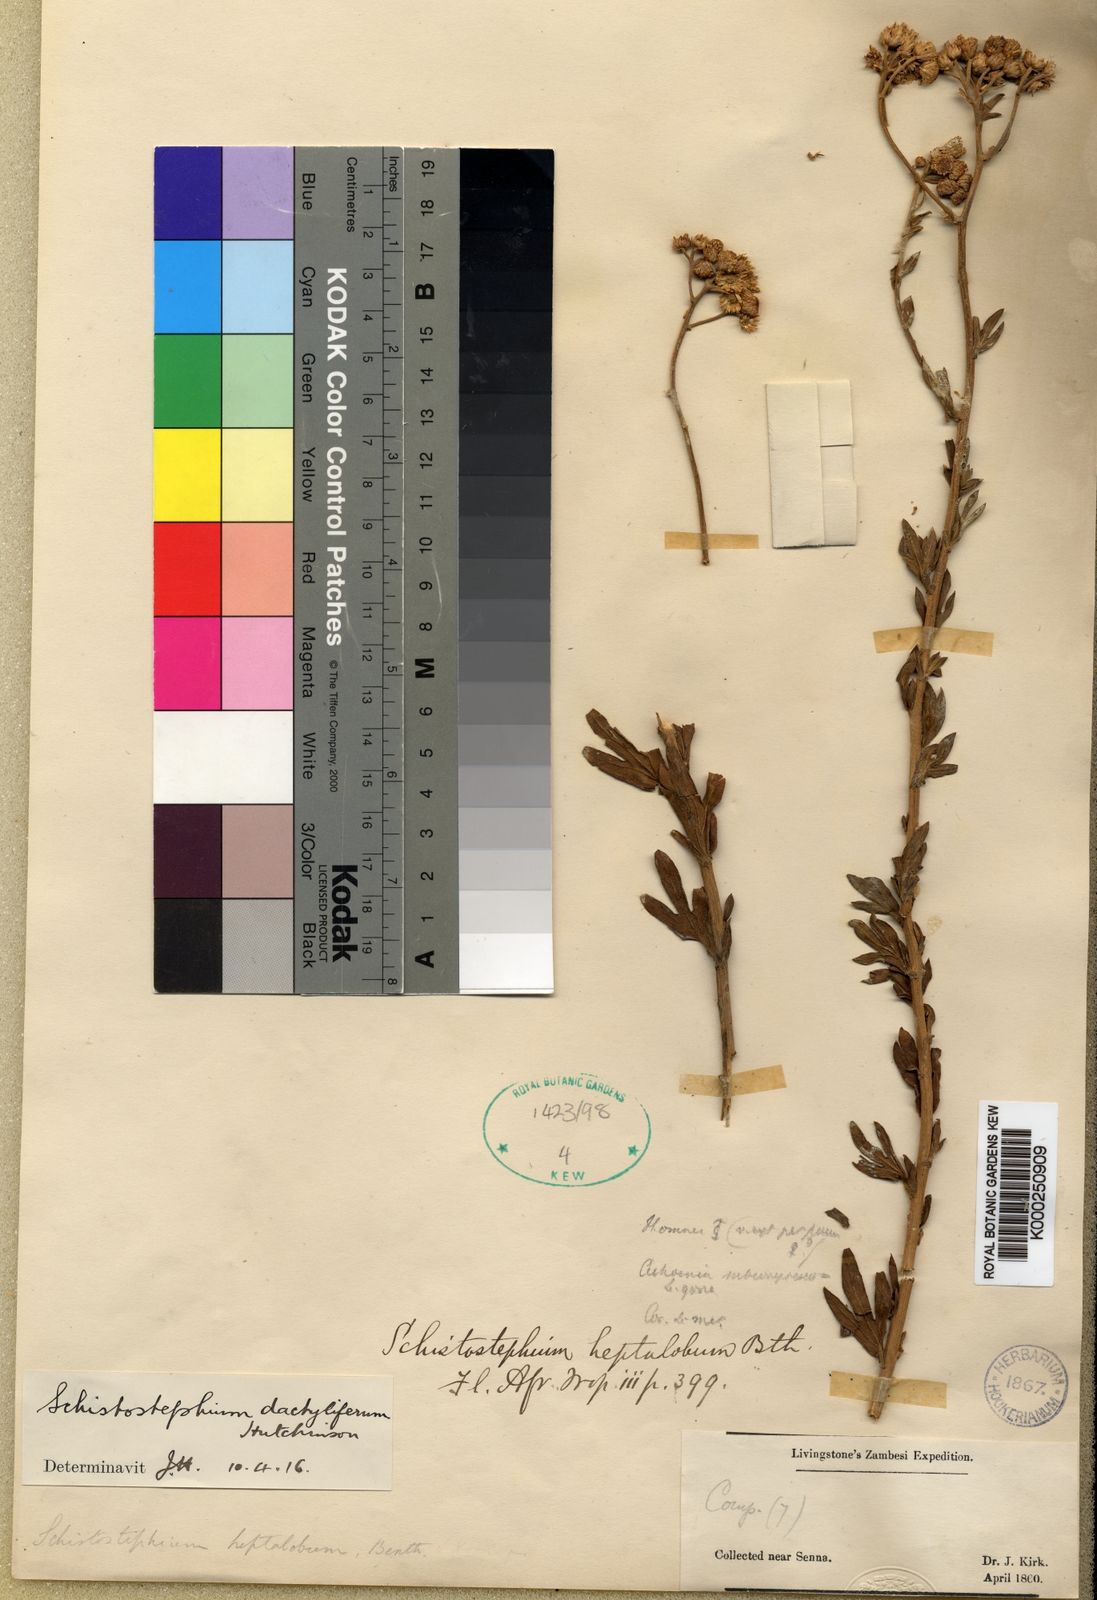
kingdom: Plantae
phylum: Tracheophyta
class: Magnoliopsida
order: Asterales
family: Asteraceae
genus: Schistostephium
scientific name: Schistostephium
